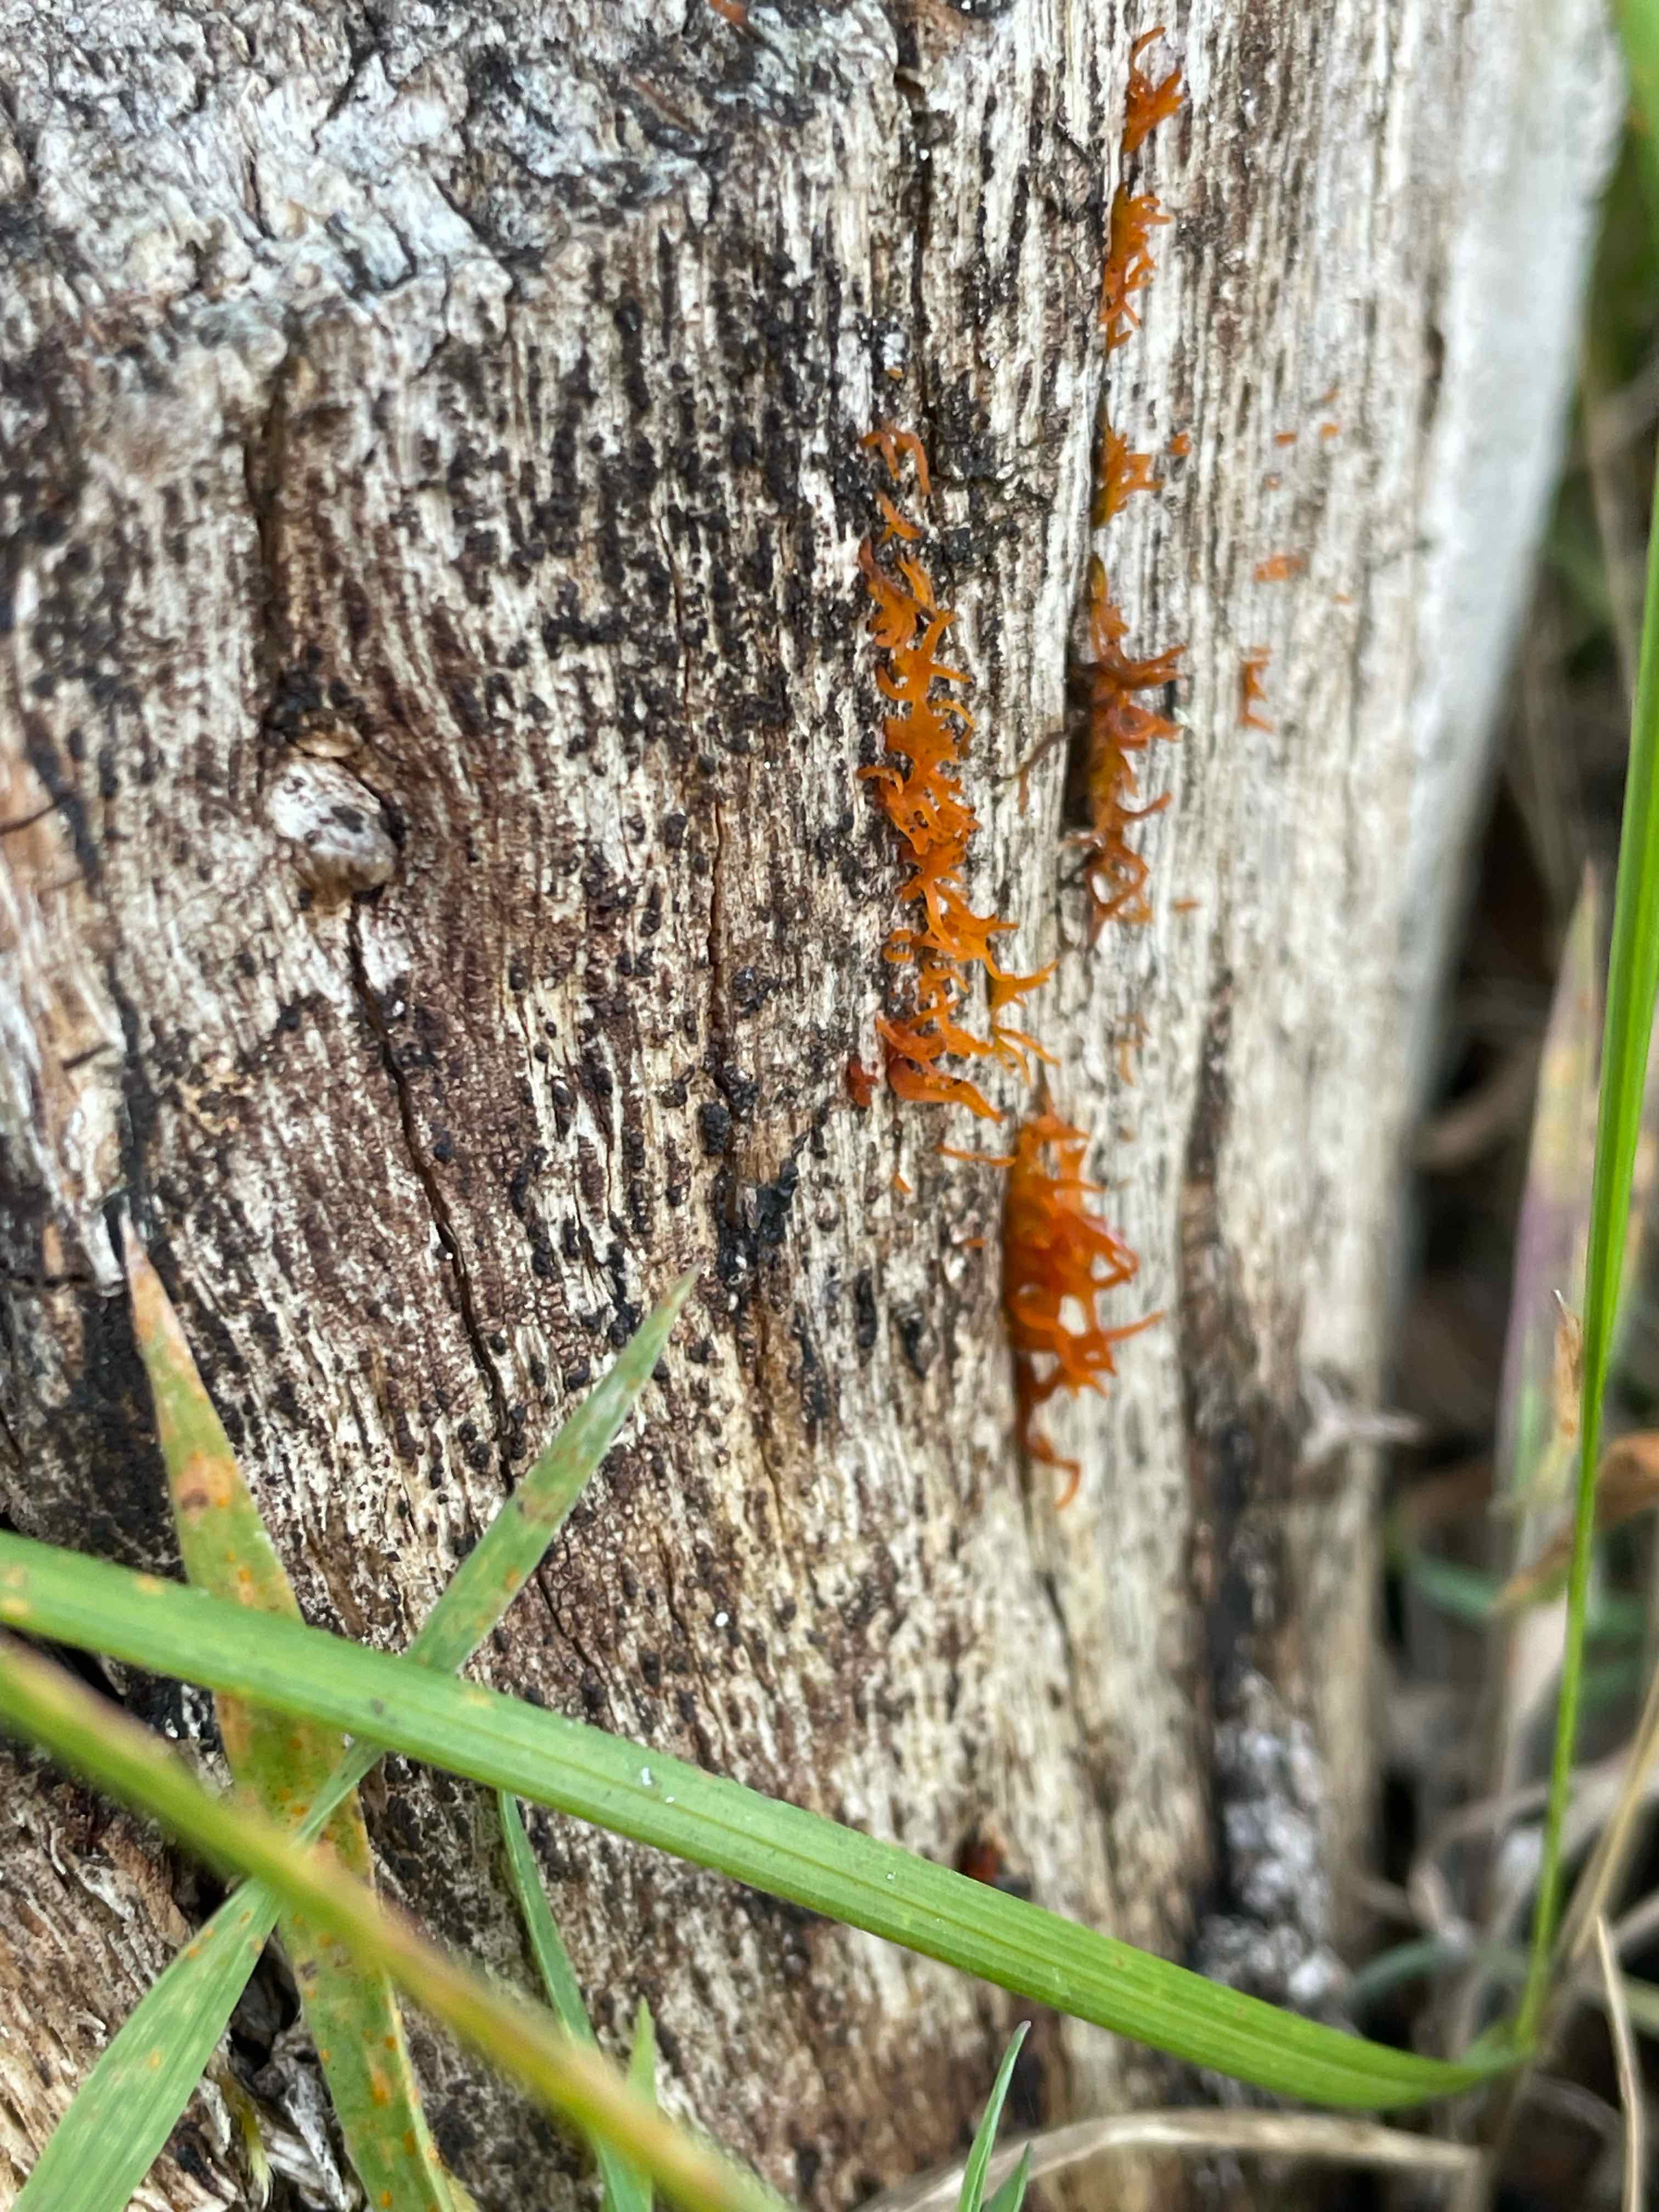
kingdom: Fungi
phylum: Basidiomycota
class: Dacrymycetes
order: Dacrymycetales
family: Dacrymycetaceae
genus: Calocera
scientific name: Calocera cornea
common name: liden guldgaffel
